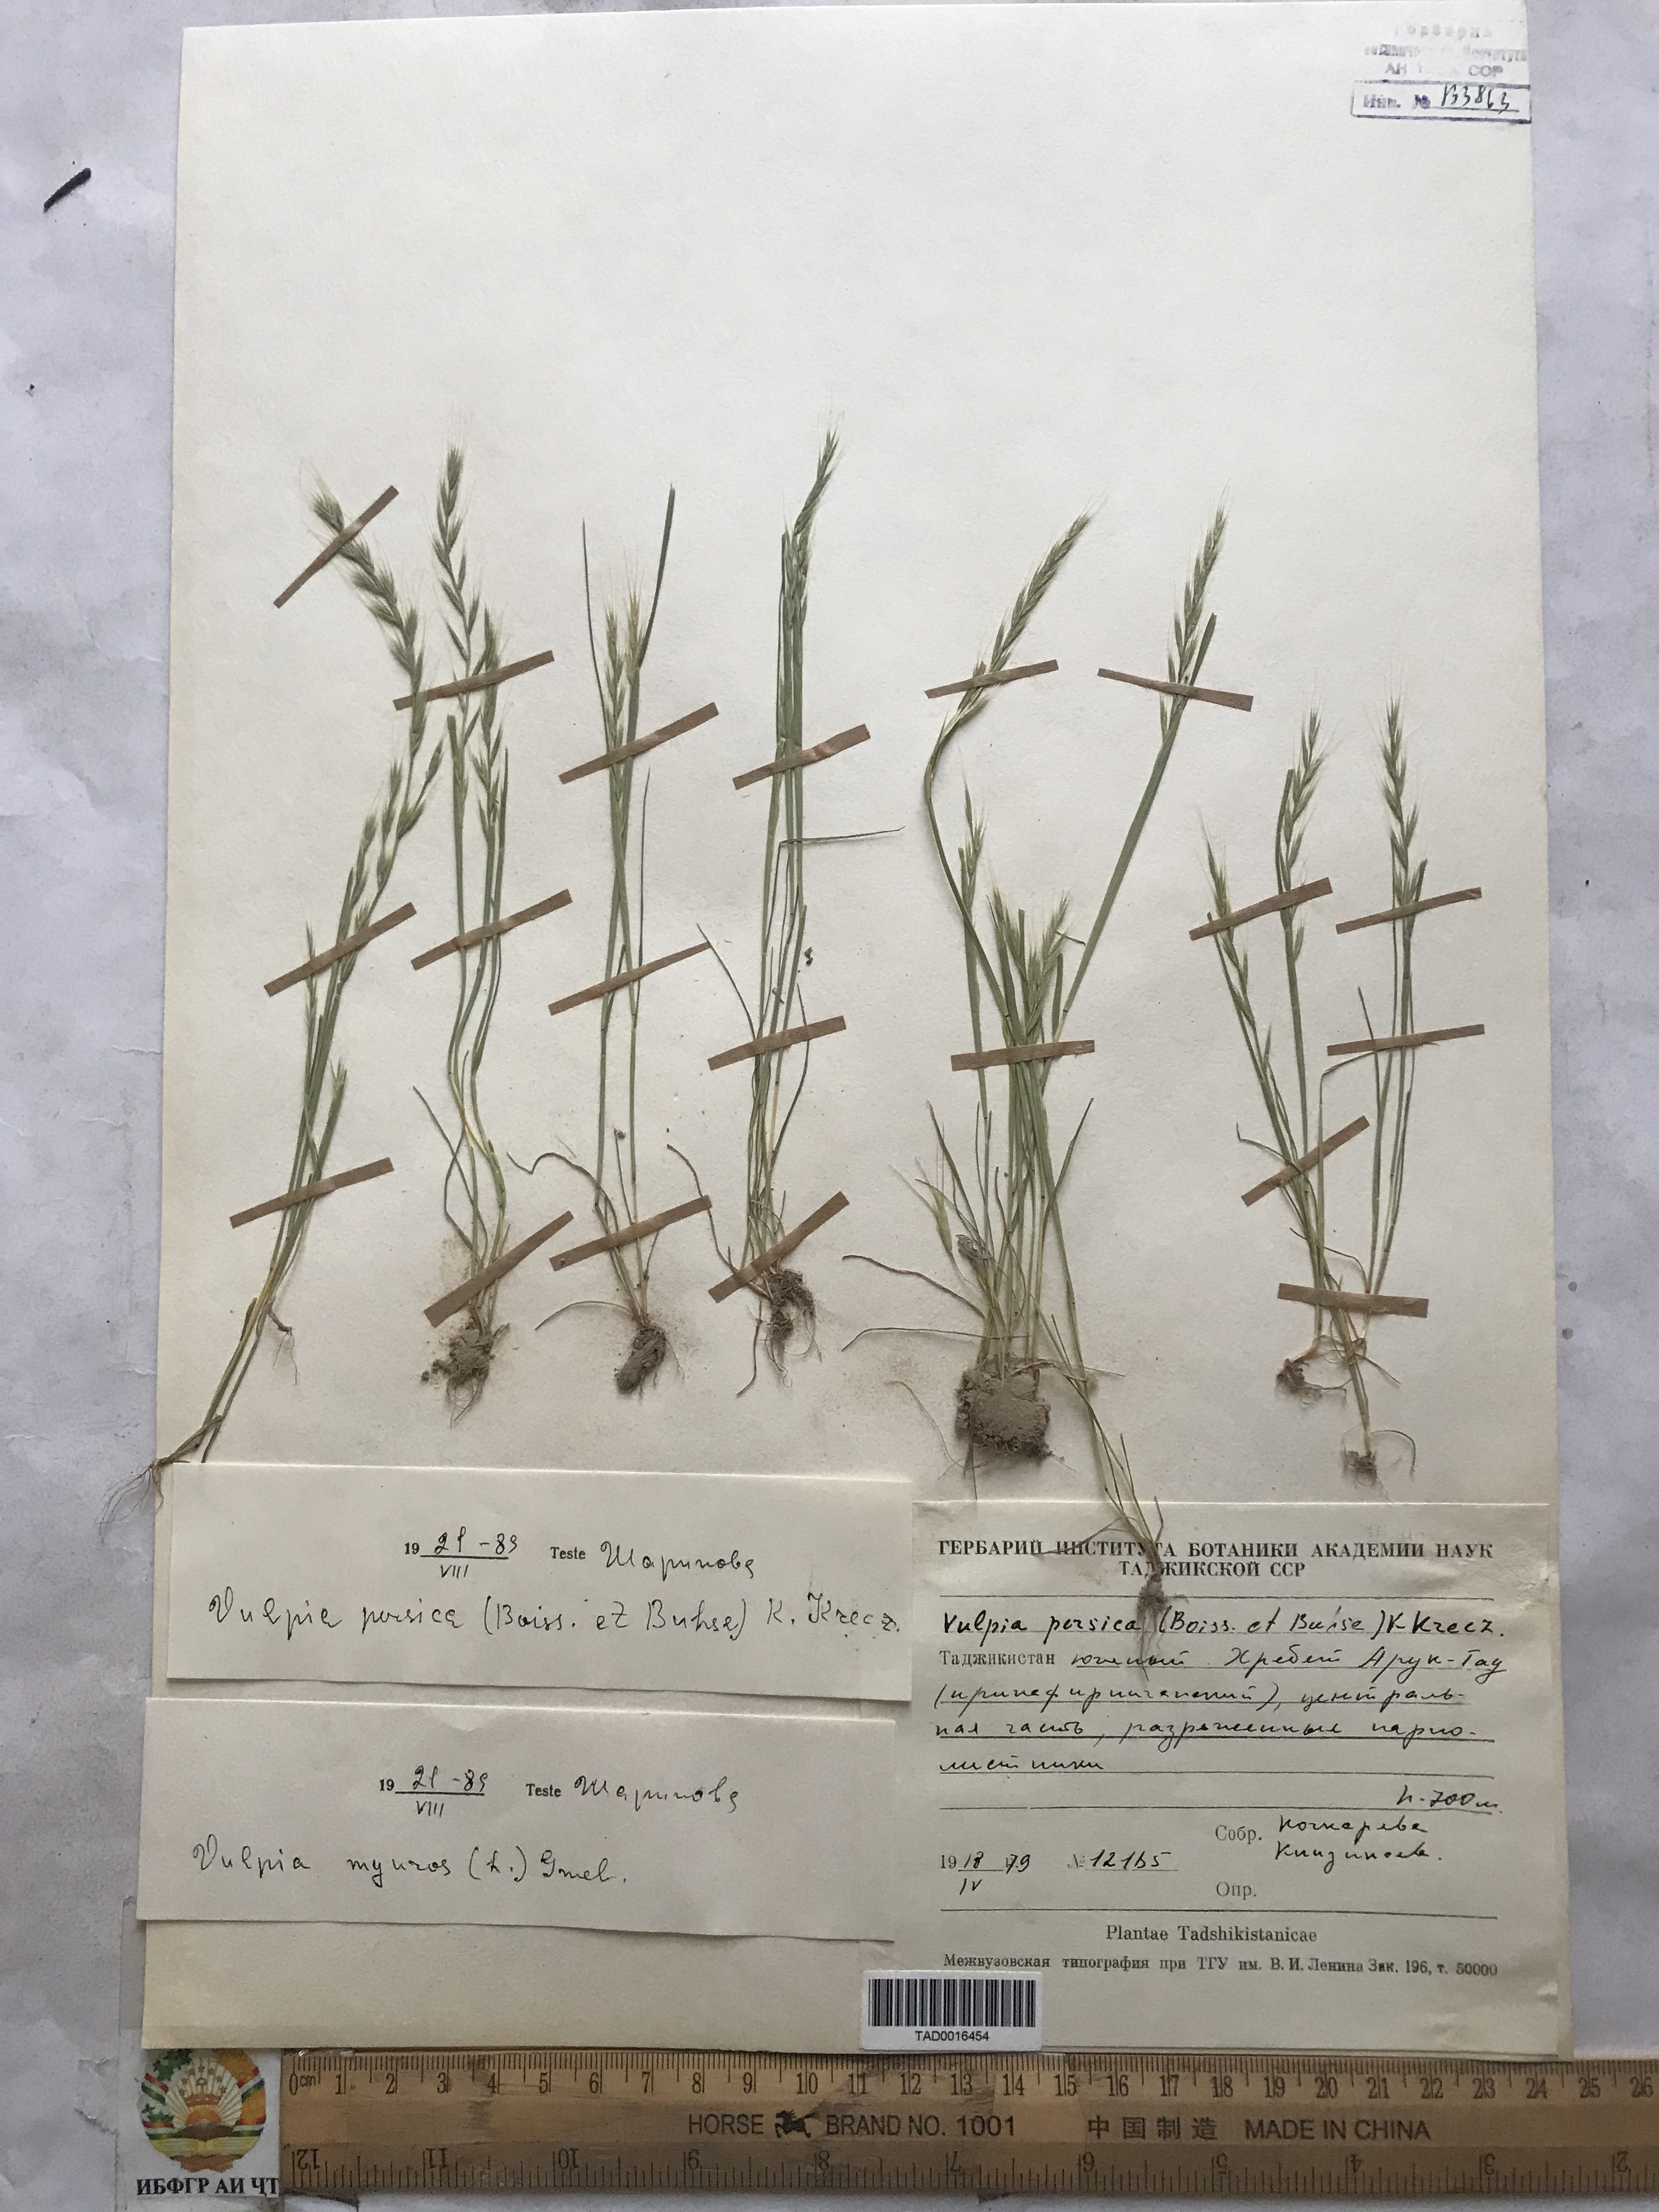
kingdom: Plantae
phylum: Tracheophyta
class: Liliopsida
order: Poales
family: Poaceae
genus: Festuca
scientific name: Festuca Vulpia persica
